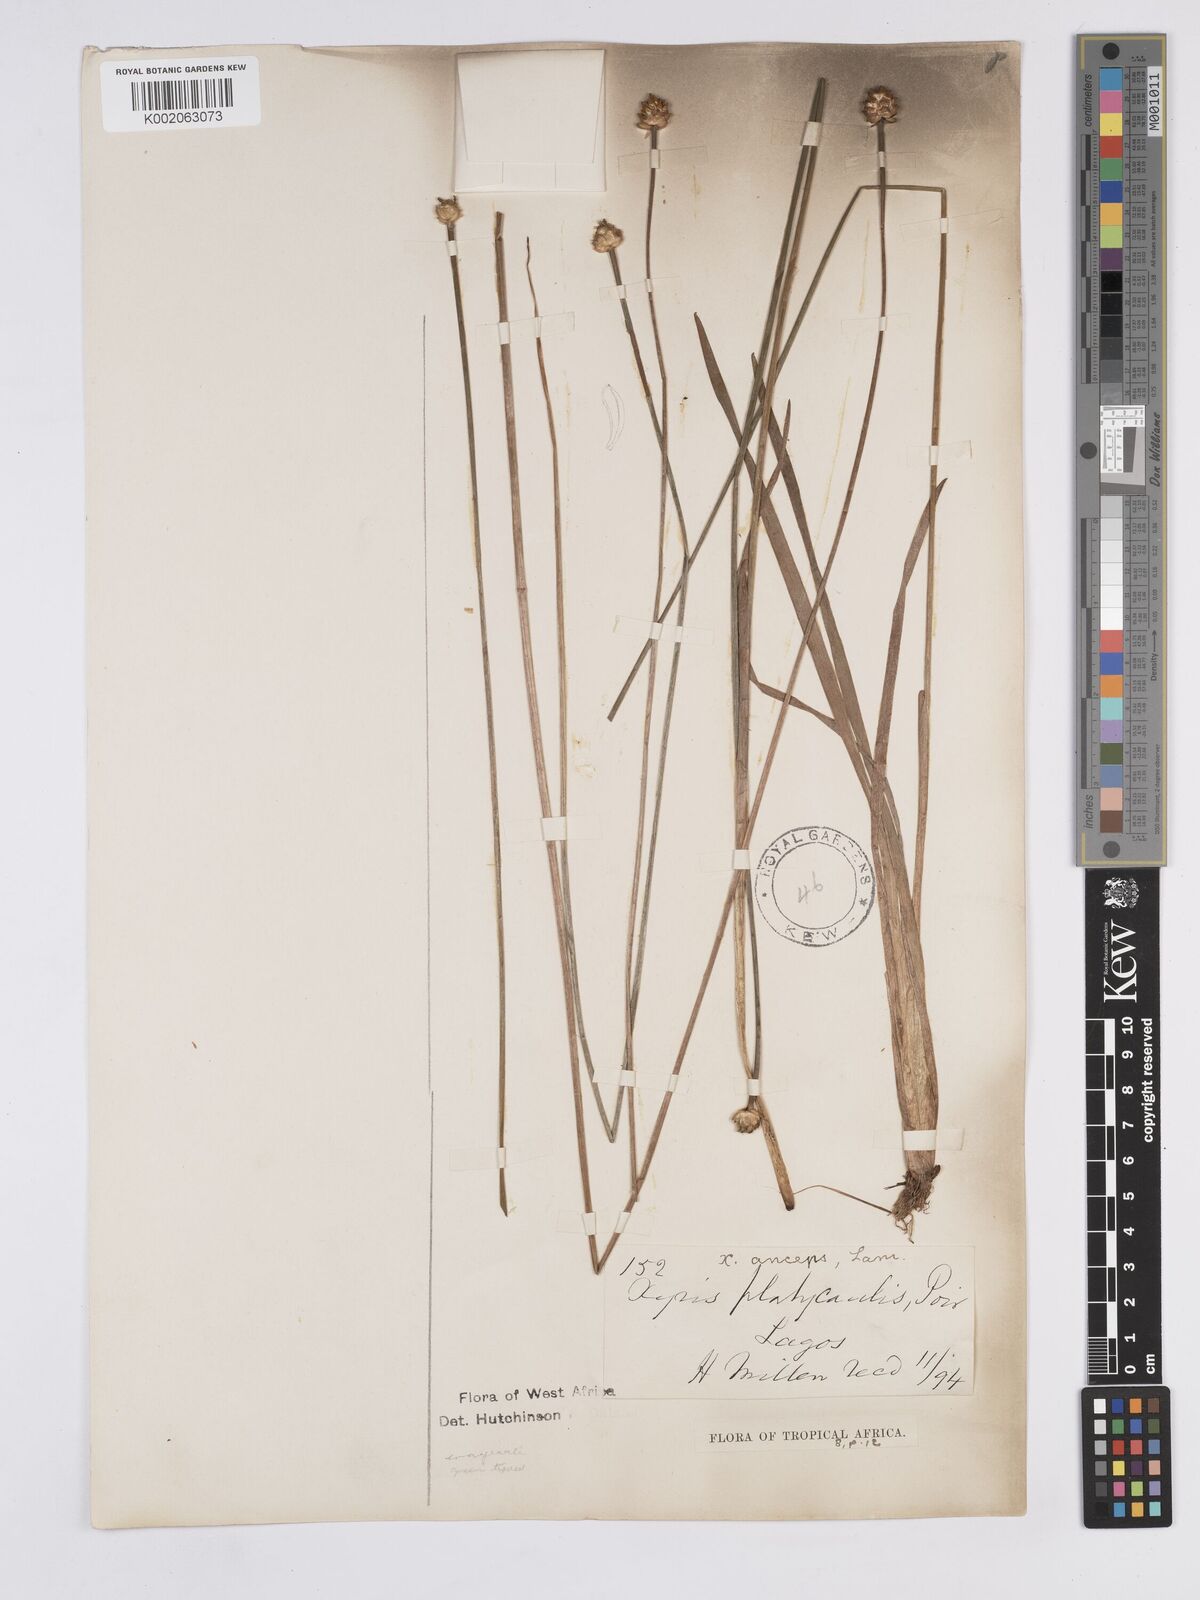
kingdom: Plantae
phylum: Tracheophyta
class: Liliopsida
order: Poales
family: Xyridaceae
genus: Xyris
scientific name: Xyris anceps
